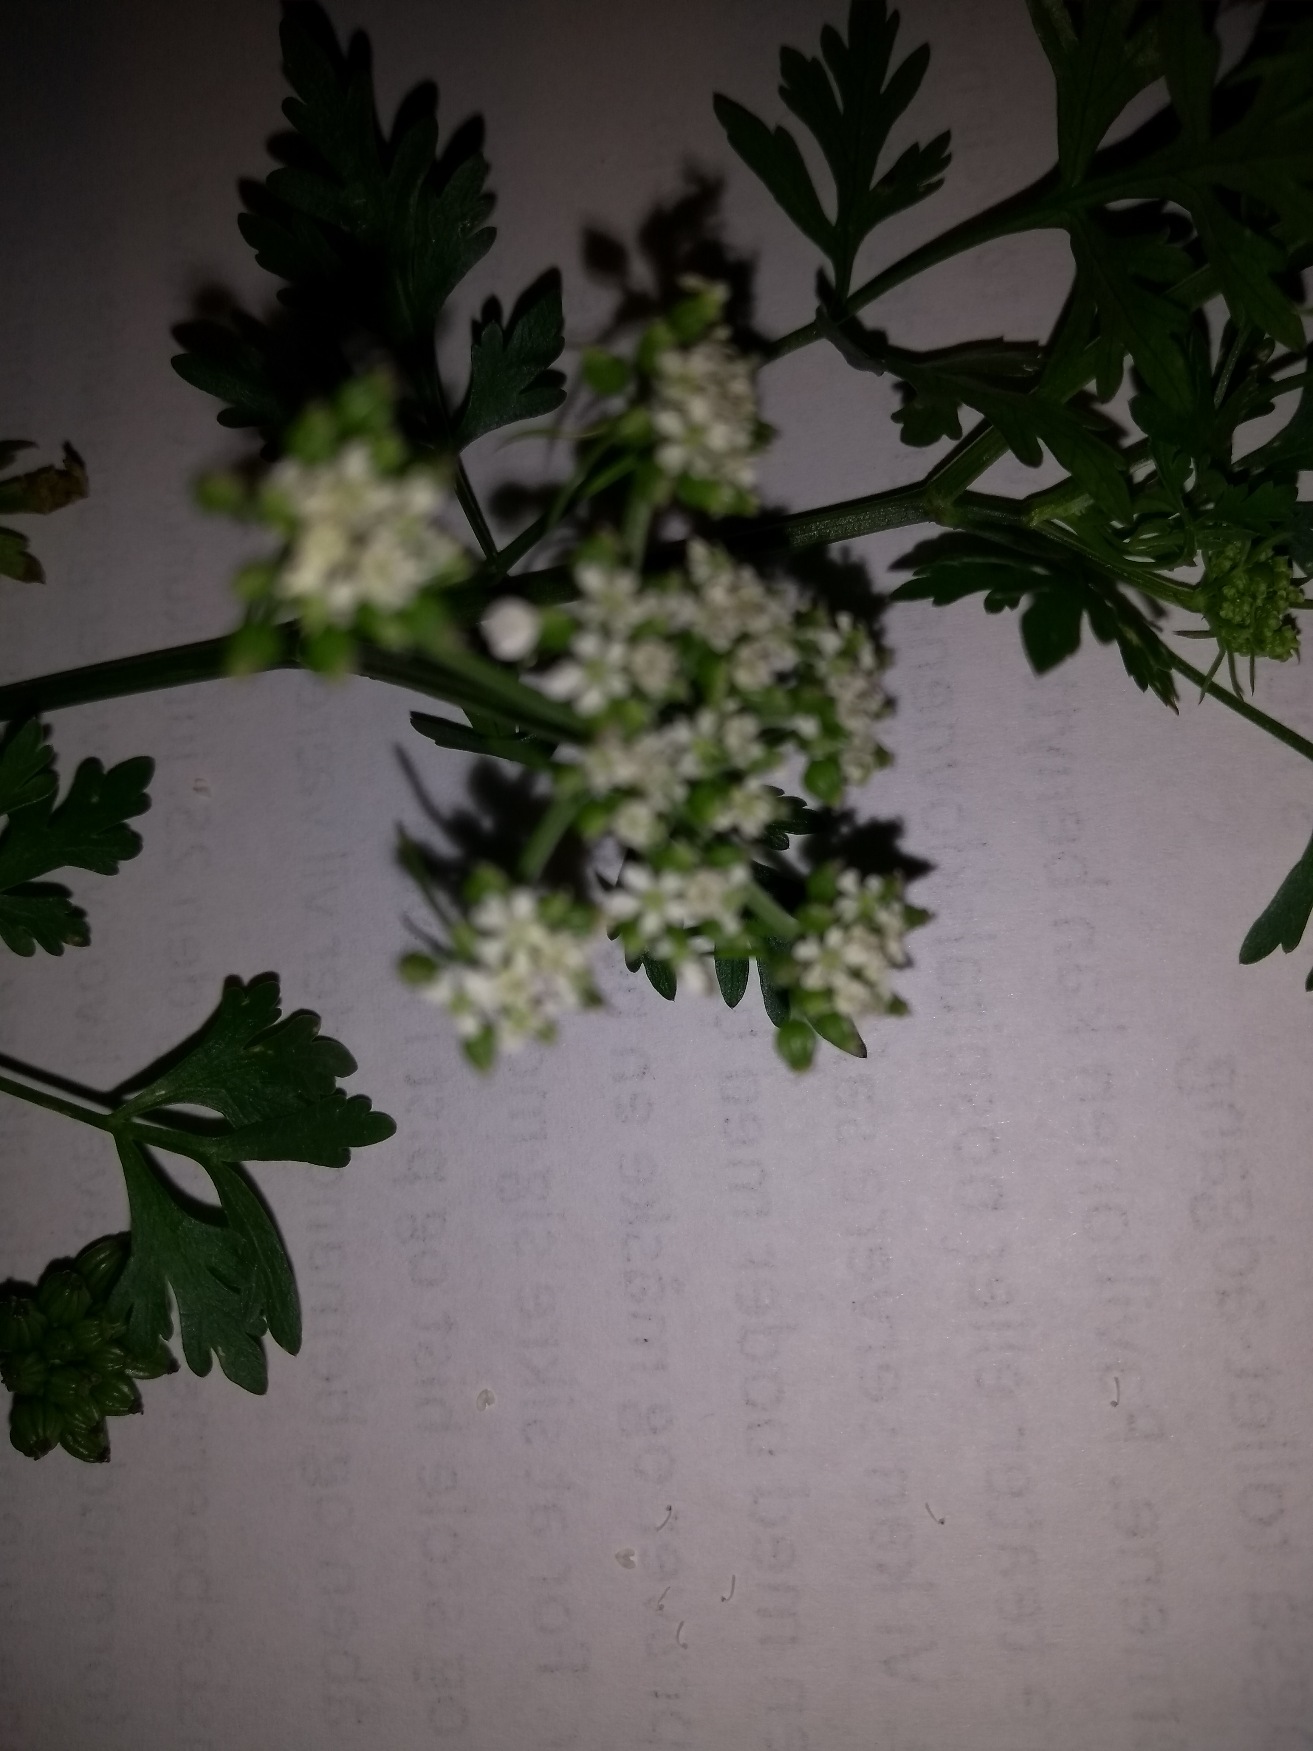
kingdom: Plantae
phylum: Tracheophyta
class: Magnoliopsida
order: Apiales
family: Apiaceae
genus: Aethusa
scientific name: Aethusa cynapium
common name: Hundepersille
